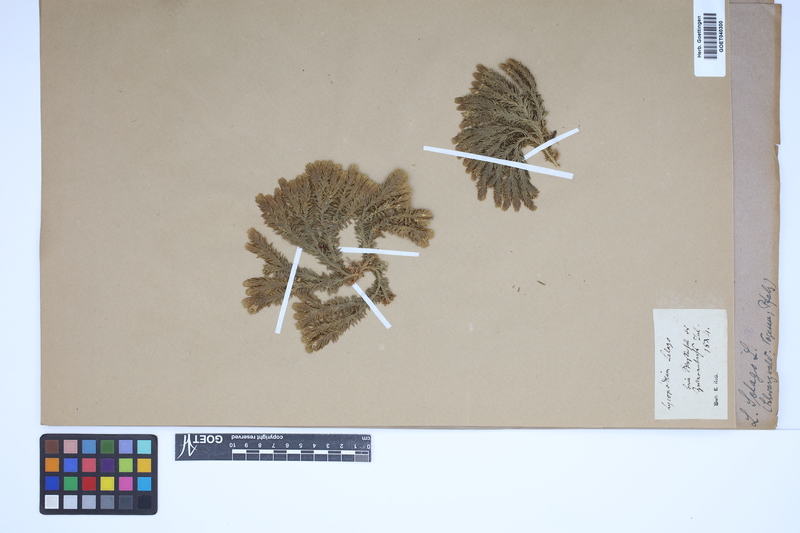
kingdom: Plantae
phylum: Tracheophyta
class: Lycopodiopsida
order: Lycopodiales
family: Lycopodiaceae
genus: Huperzia
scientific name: Huperzia selago
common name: Northern firmoss
